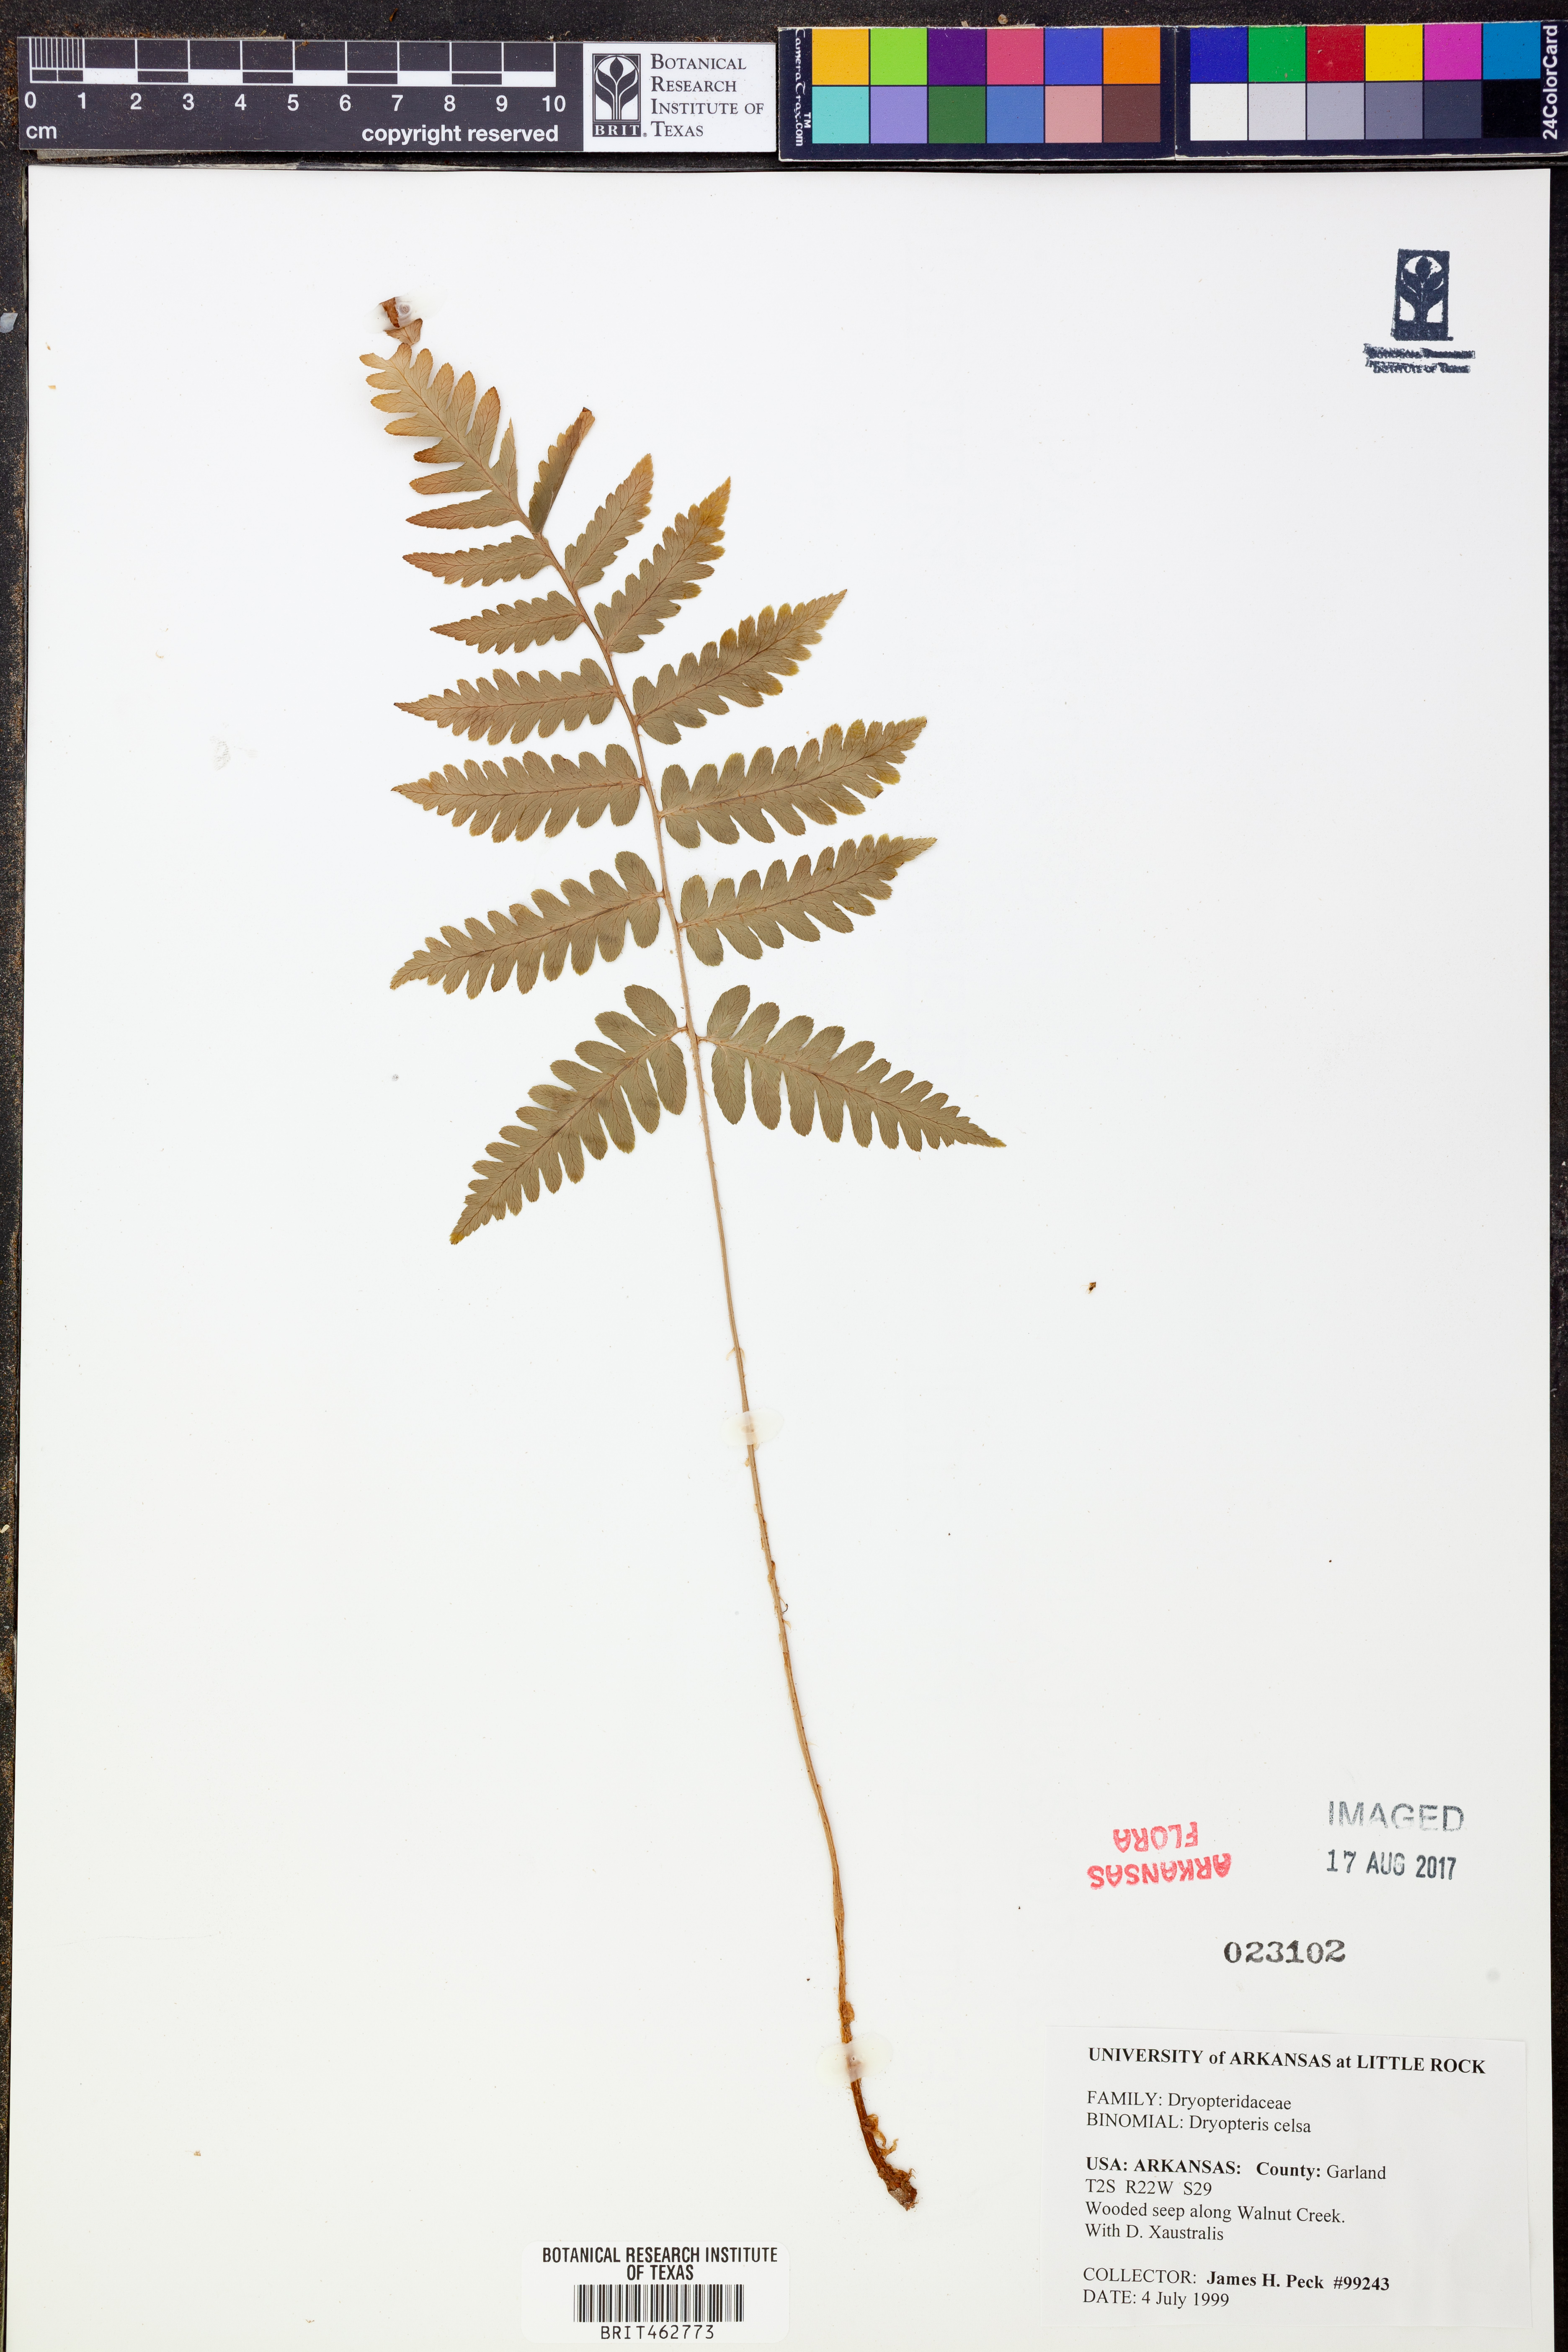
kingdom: Plantae
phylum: Tracheophyta
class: Polypodiopsida
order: Polypodiales
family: Dryopteridaceae
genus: Dryopteris
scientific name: Dryopteris celsa
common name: Log fern
